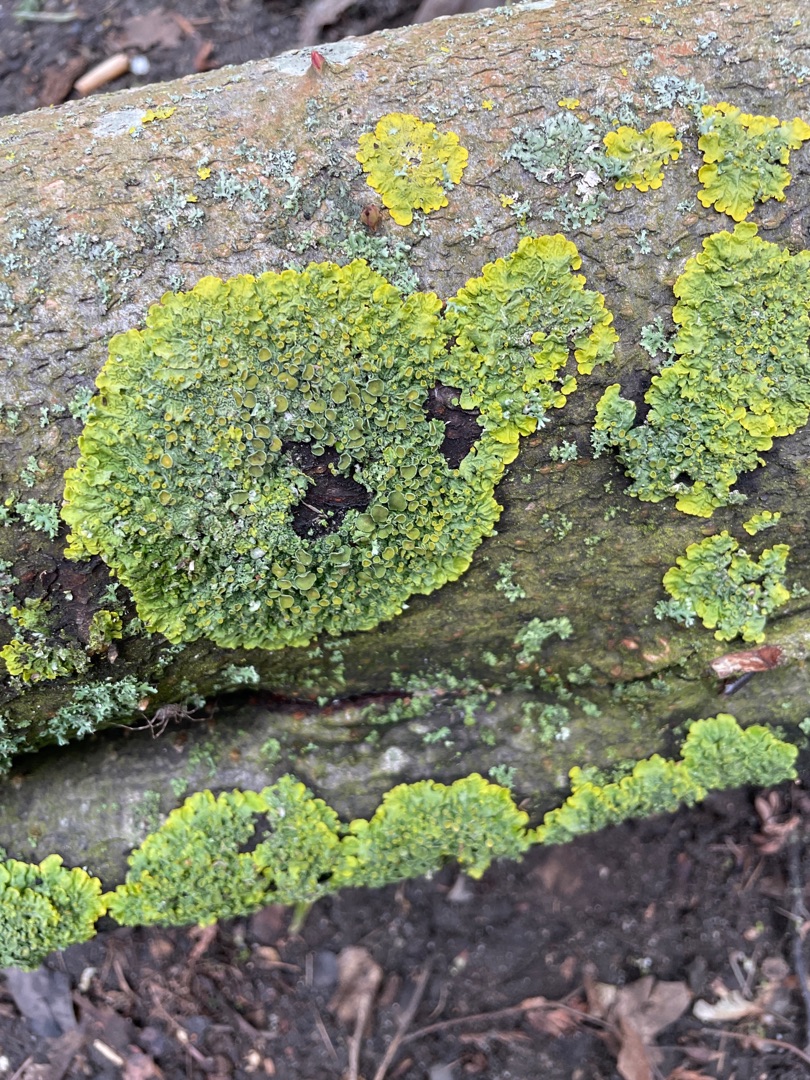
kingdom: Fungi
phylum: Ascomycota
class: Lecanoromycetes
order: Teloschistales
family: Teloschistaceae
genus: Xanthoria
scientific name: Xanthoria parietina
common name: Almindelig væggelav
